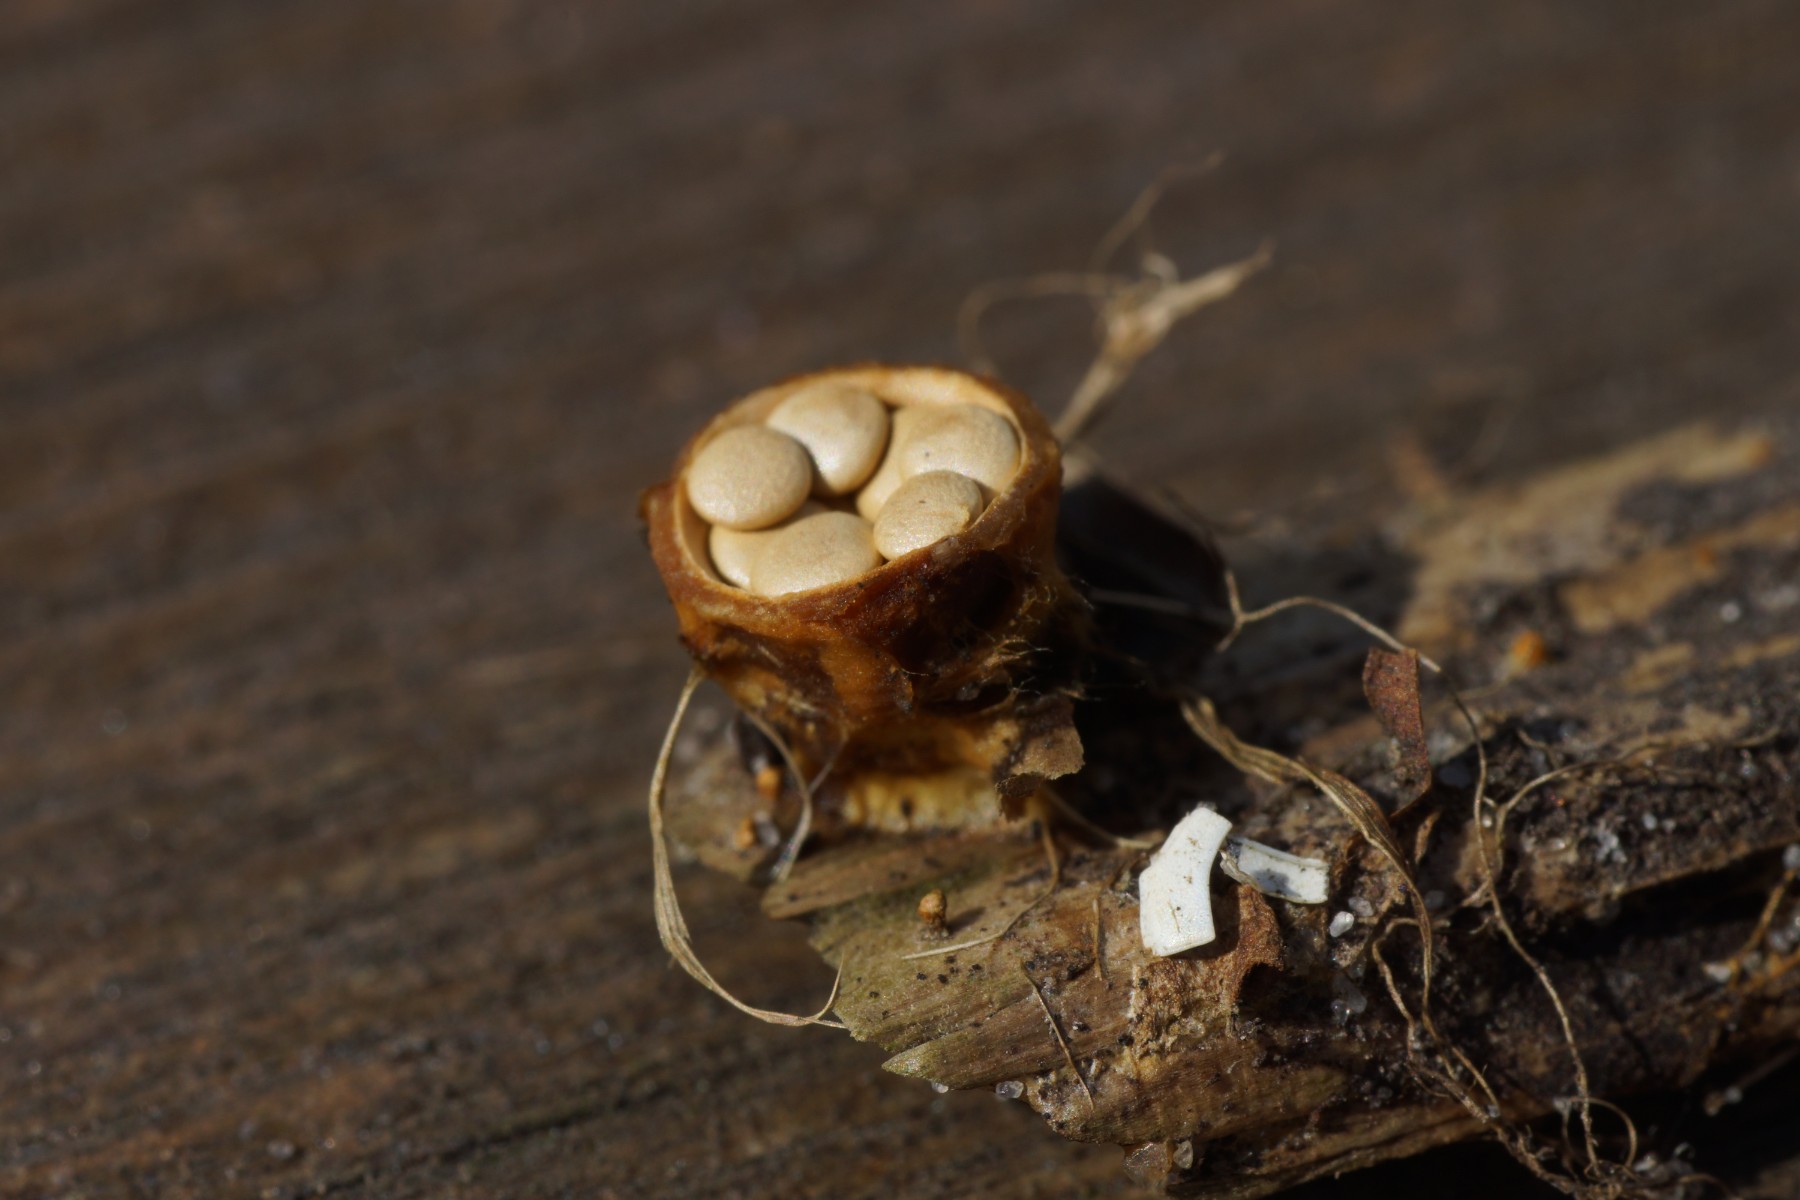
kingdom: Fungi
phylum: Basidiomycota
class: Agaricomycetes
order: Agaricales
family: Nidulariaceae
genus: Crucibulum
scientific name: Crucibulum crucibuliforme
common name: krukkesvamp
